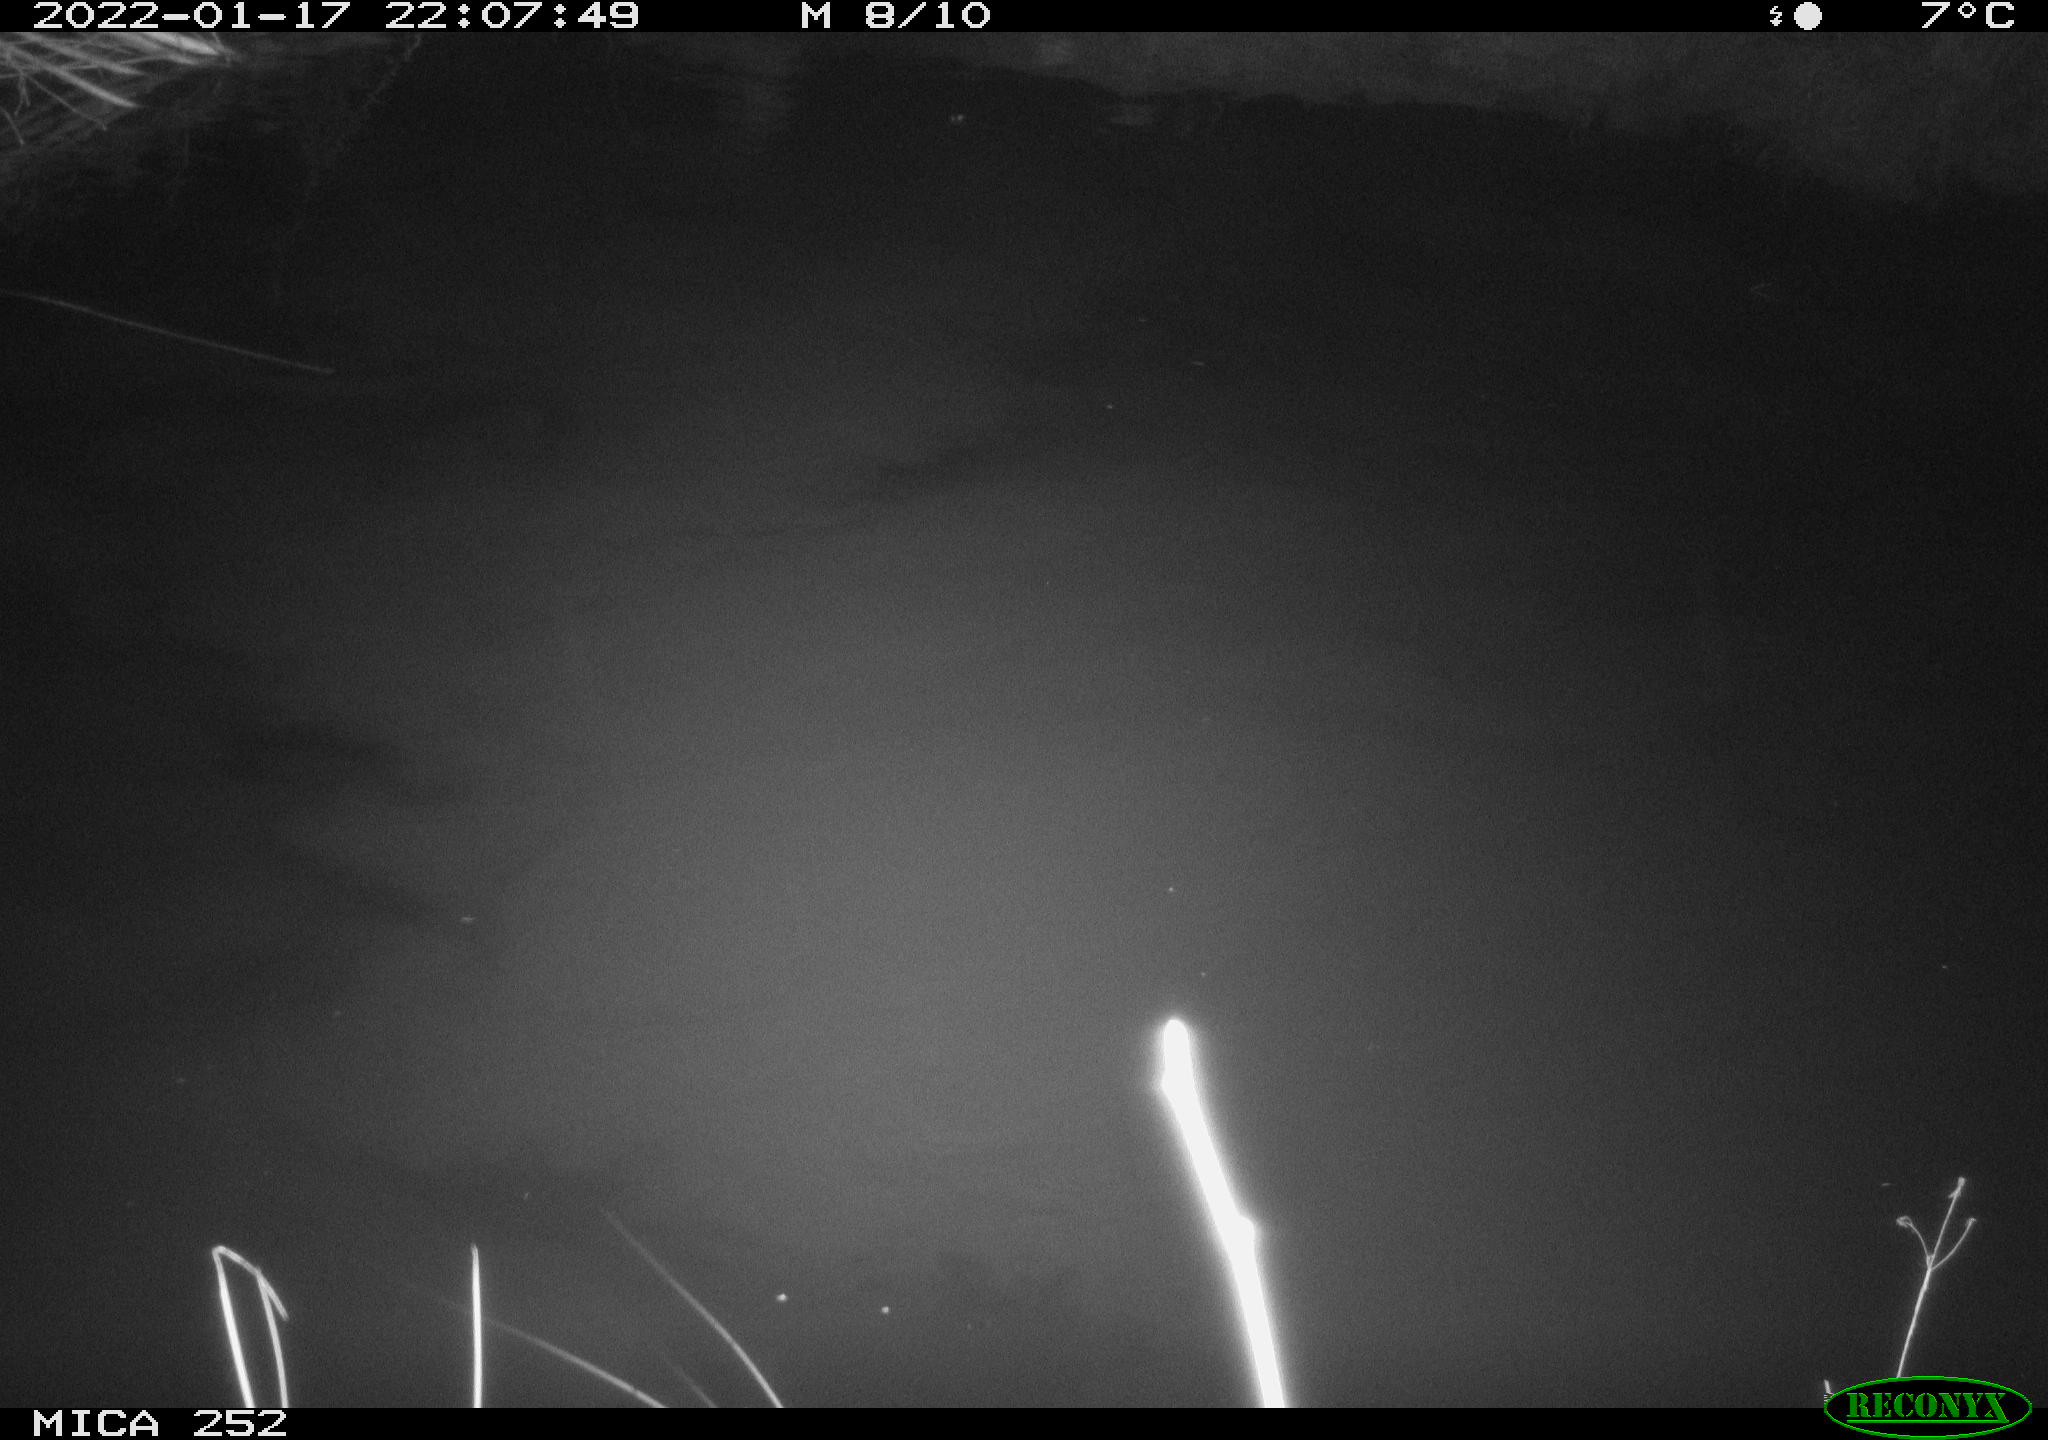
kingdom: Animalia
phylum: Chordata
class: Mammalia
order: Rodentia
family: Castoridae
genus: Castor
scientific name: Castor fiber
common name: Eurasian beaver
